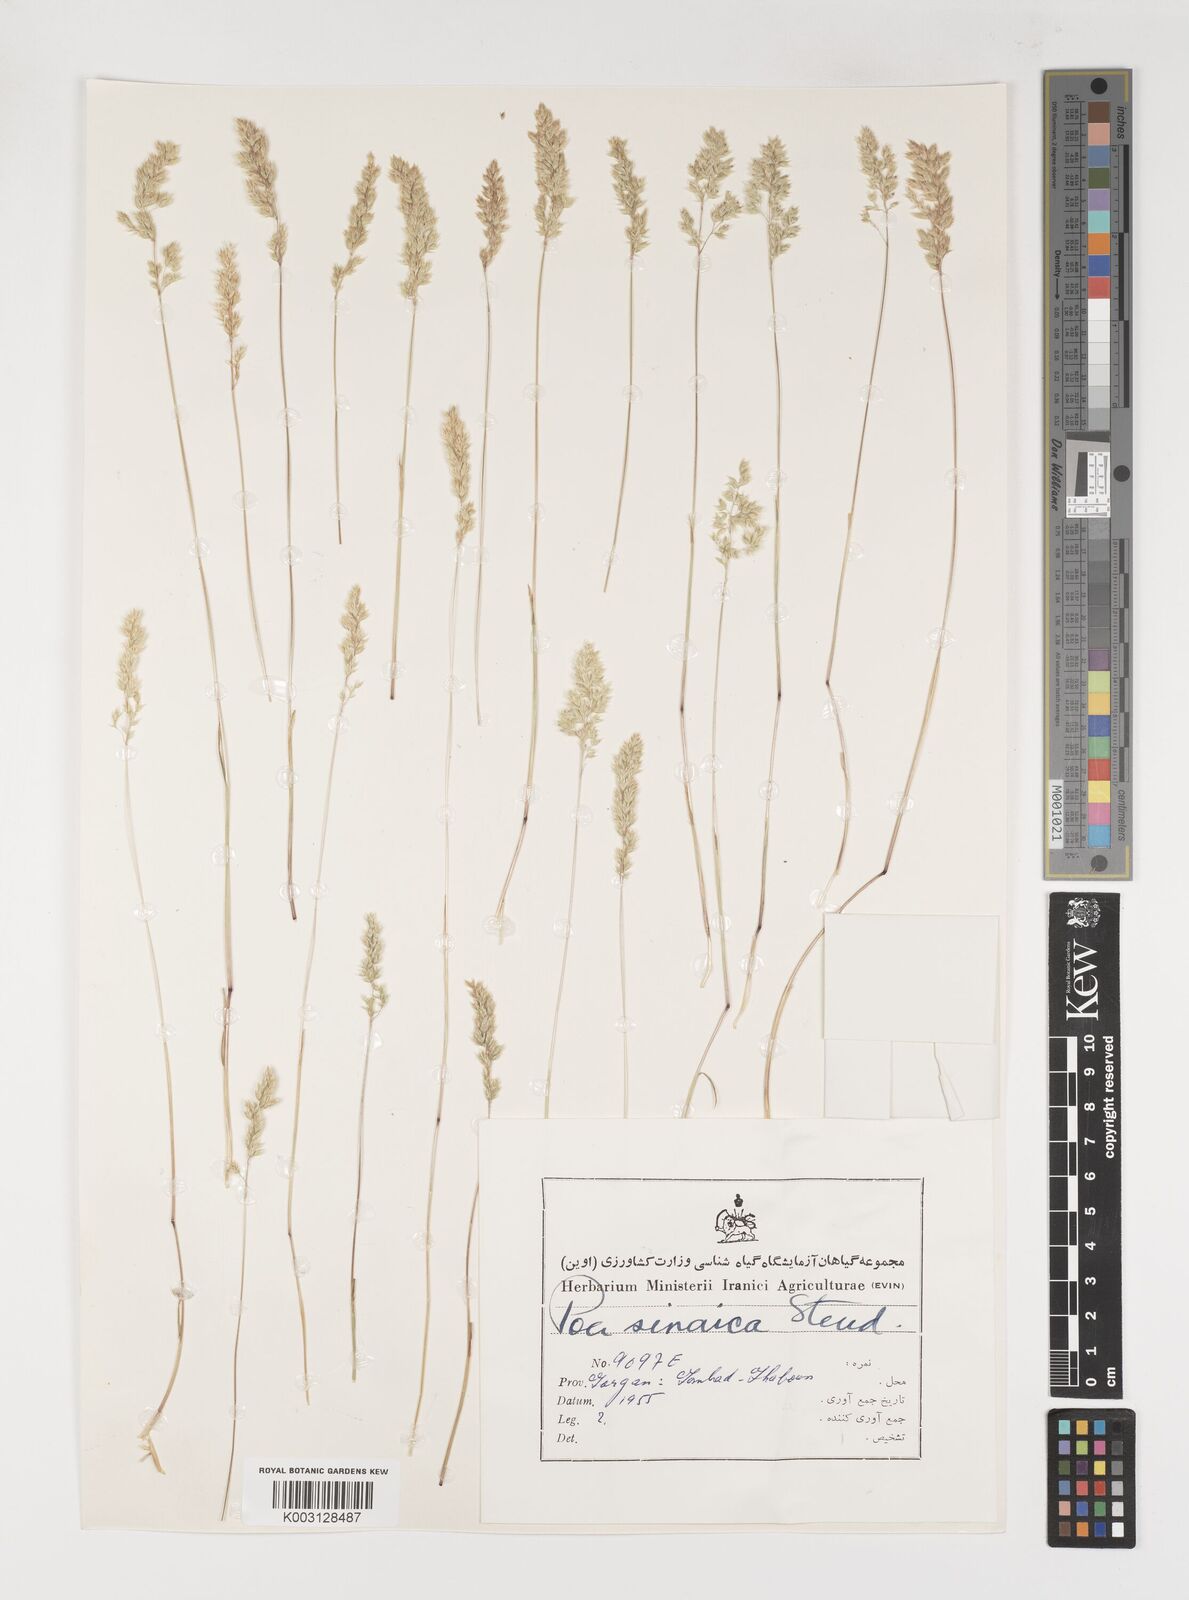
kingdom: Plantae
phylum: Tracheophyta
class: Liliopsida
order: Poales
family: Poaceae
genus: Poa
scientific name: Poa sinaica
